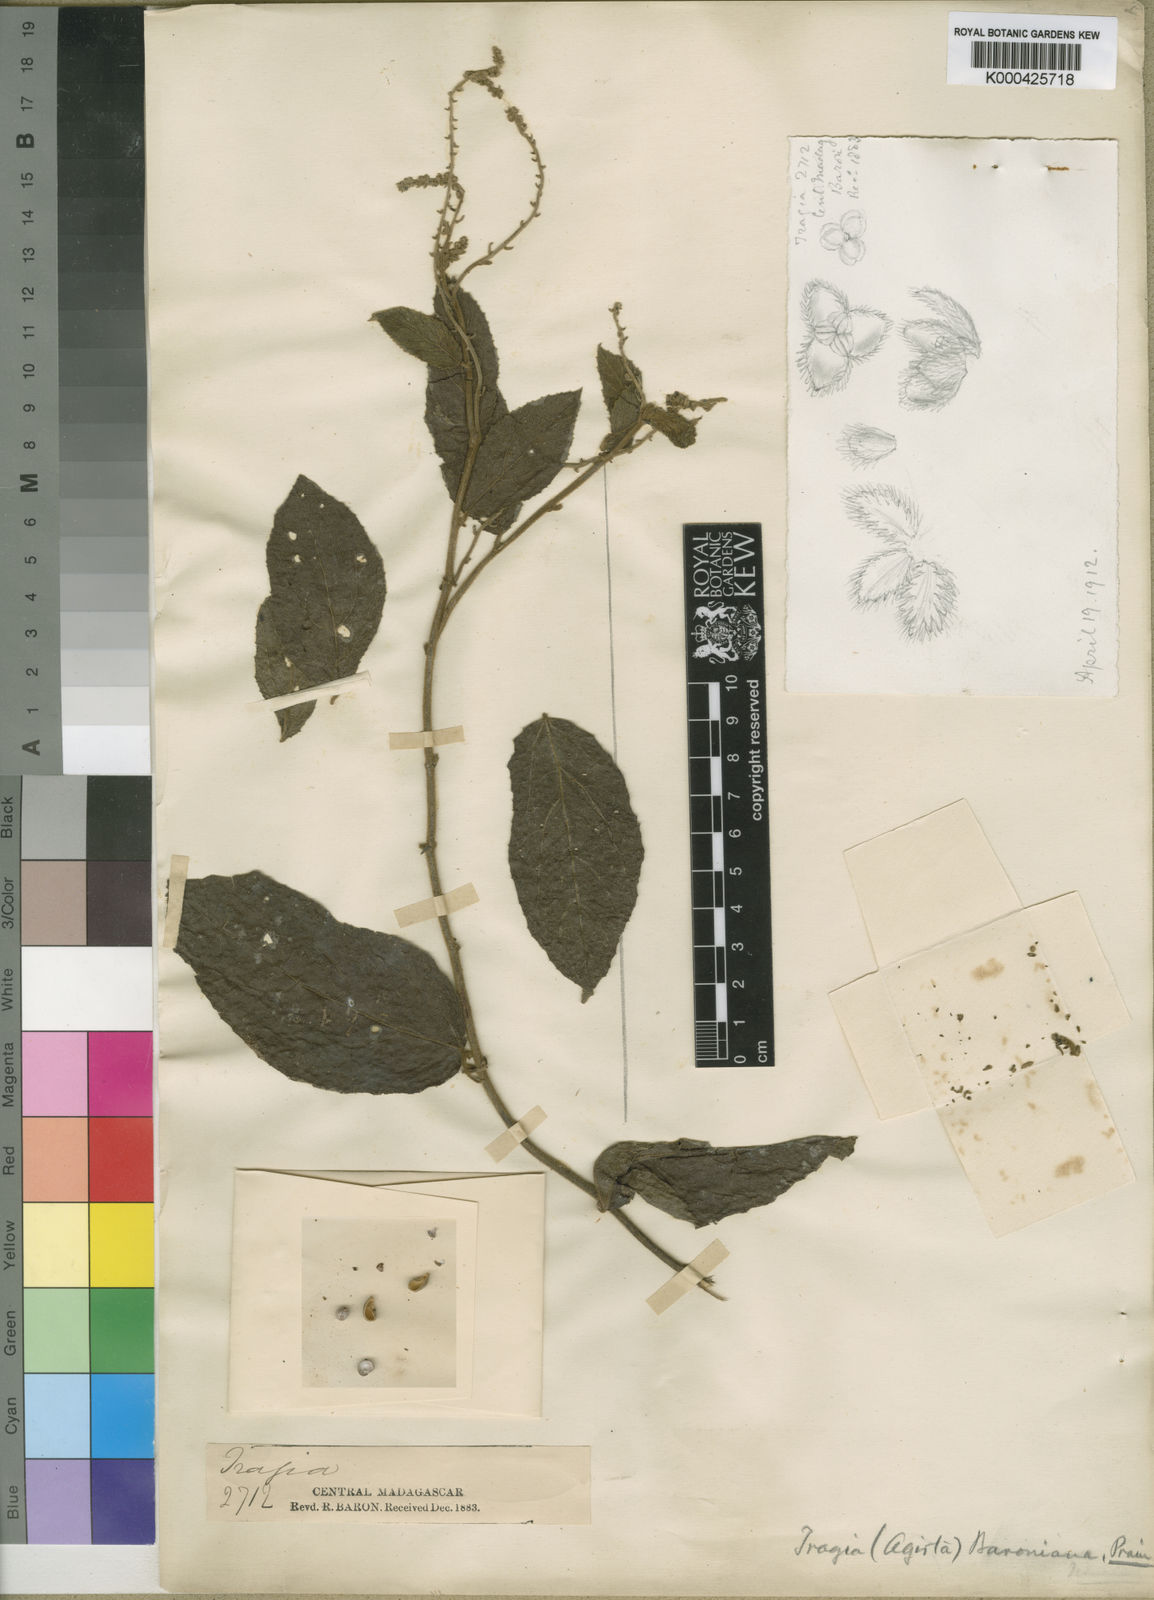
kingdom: Plantae
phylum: Tracheophyta
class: Magnoliopsida
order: Malpighiales
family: Euphorbiaceae
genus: Tragia
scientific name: Tragia baroniana
